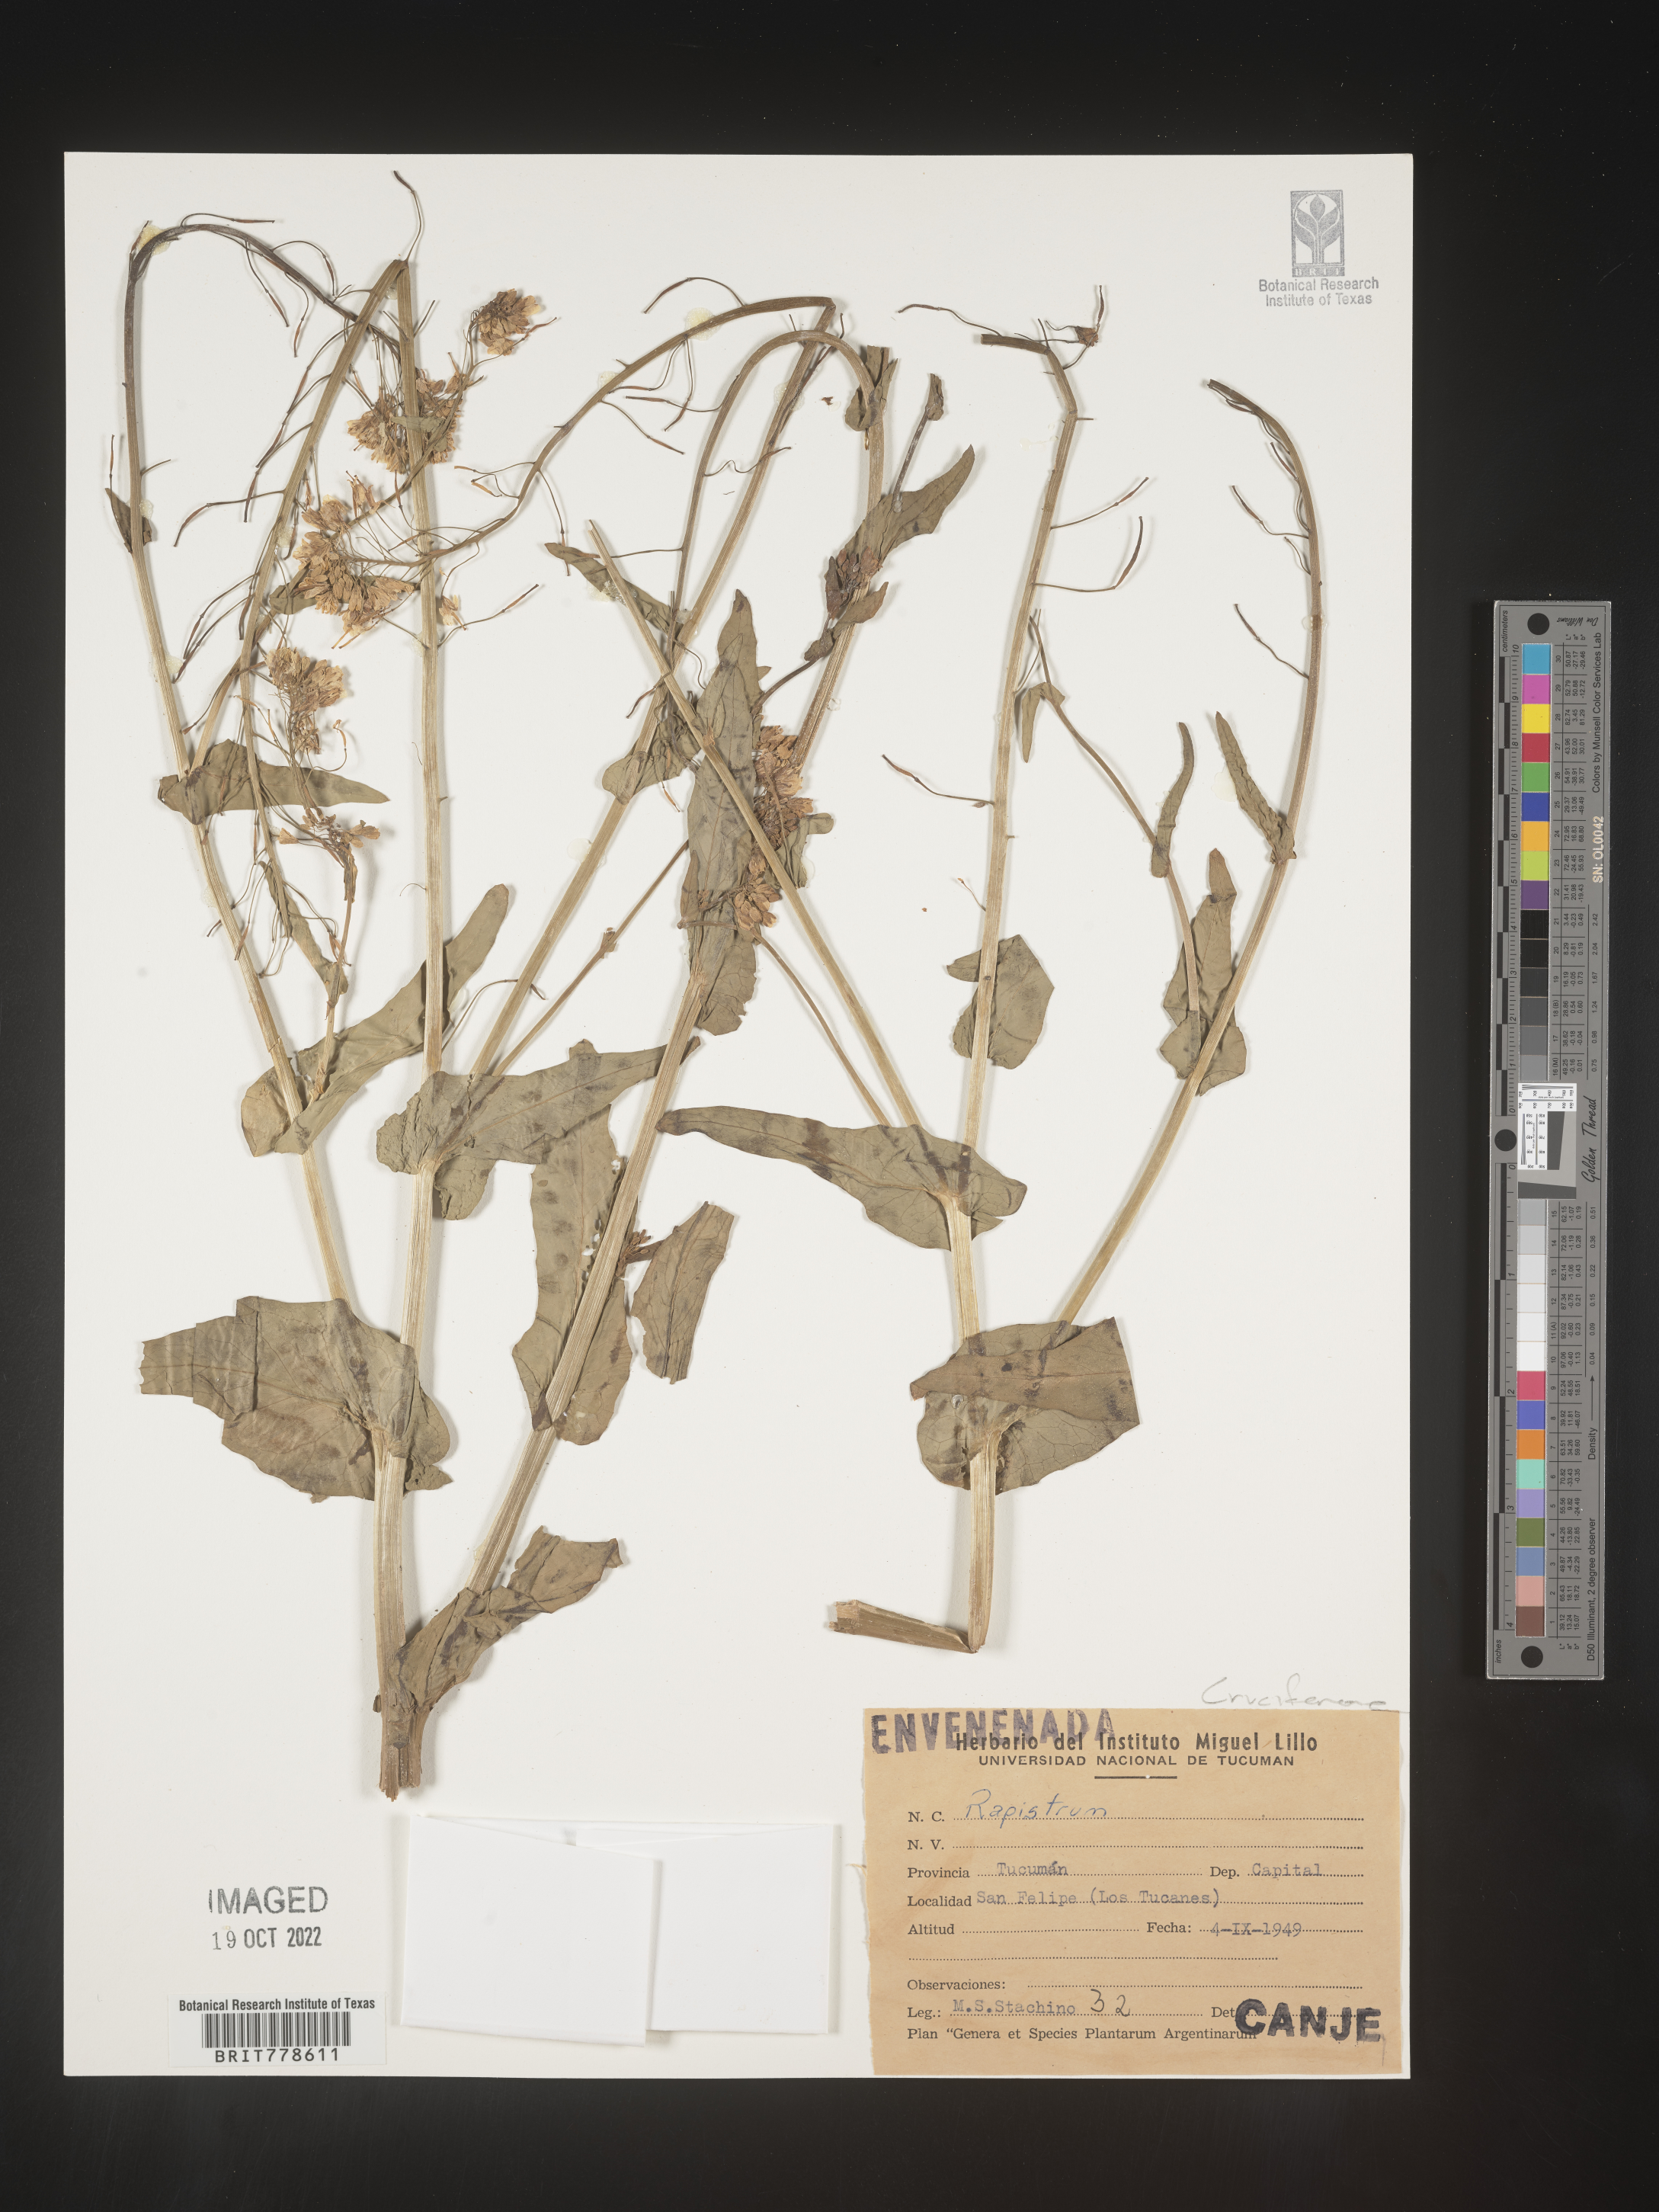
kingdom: Plantae
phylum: Tracheophyta
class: Magnoliopsida
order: Brassicales
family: Brassicaceae
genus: Rapistrum
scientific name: Rapistrum
